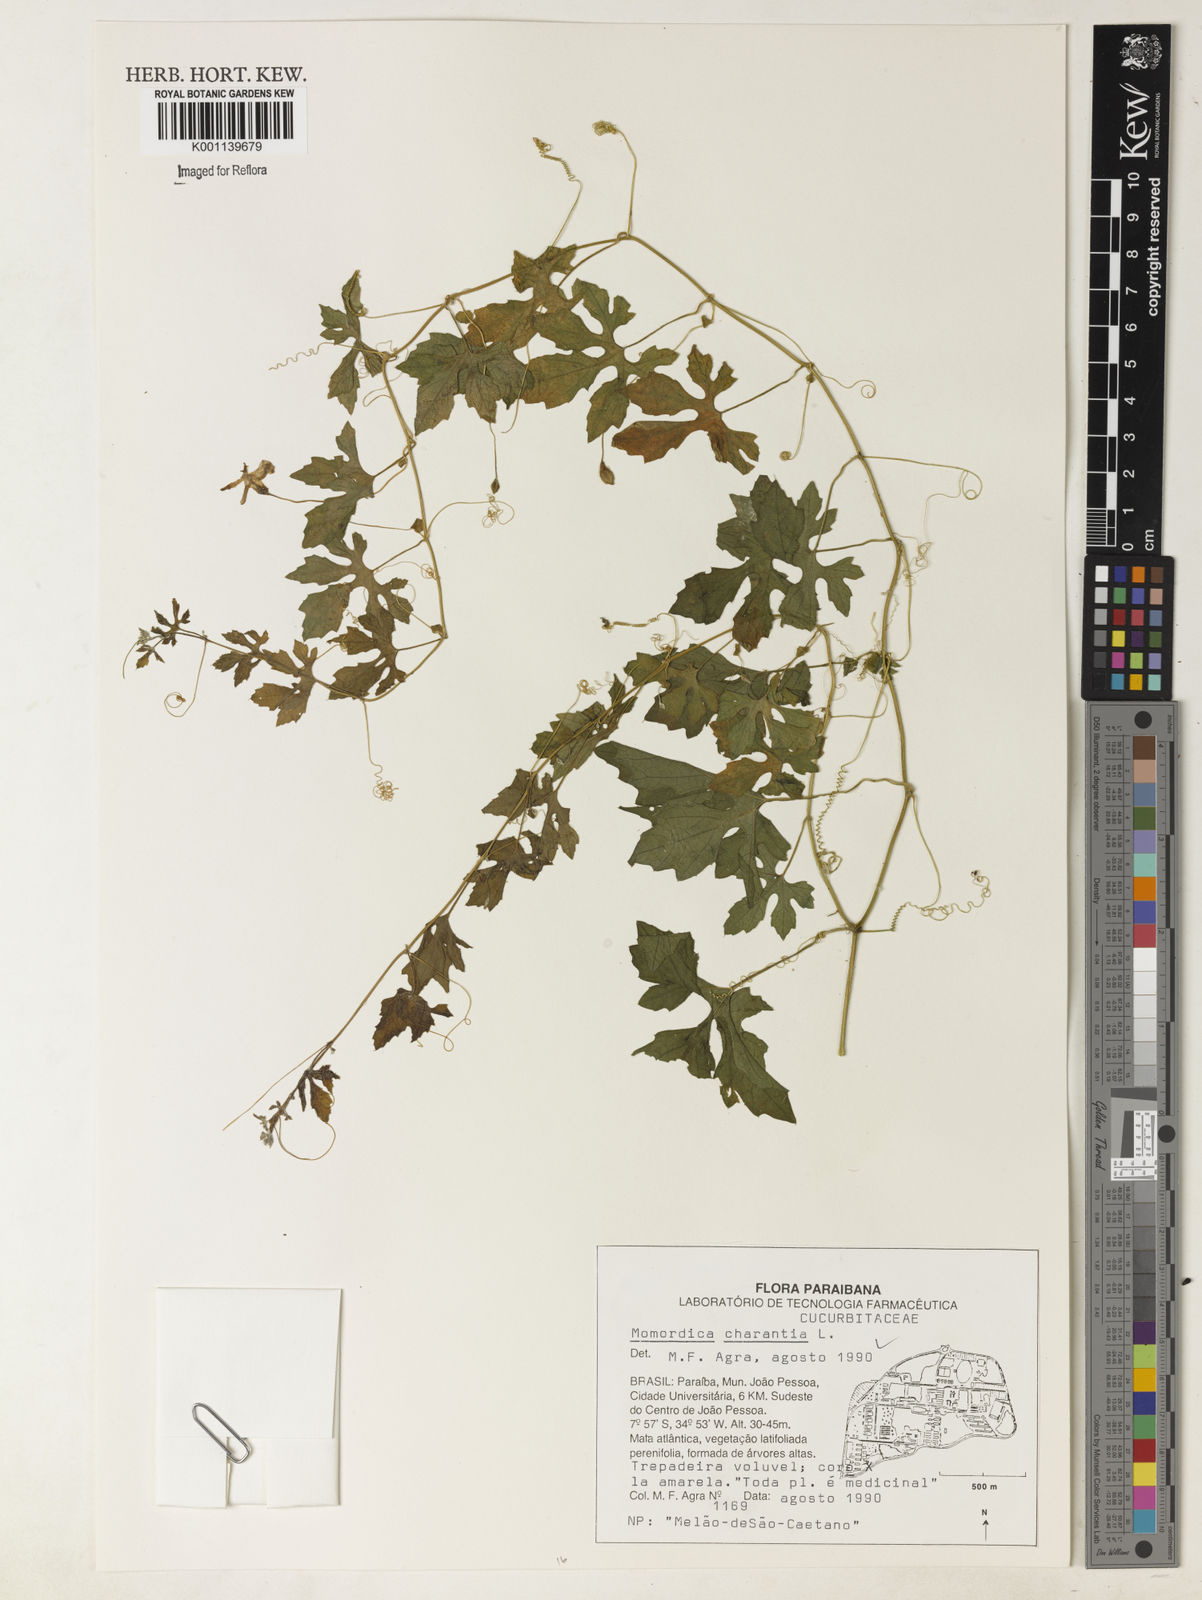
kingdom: Plantae
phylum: Tracheophyta
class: Magnoliopsida
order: Cucurbitales
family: Cucurbitaceae
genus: Momordica
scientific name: Momordica charantia
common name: Balsampear
